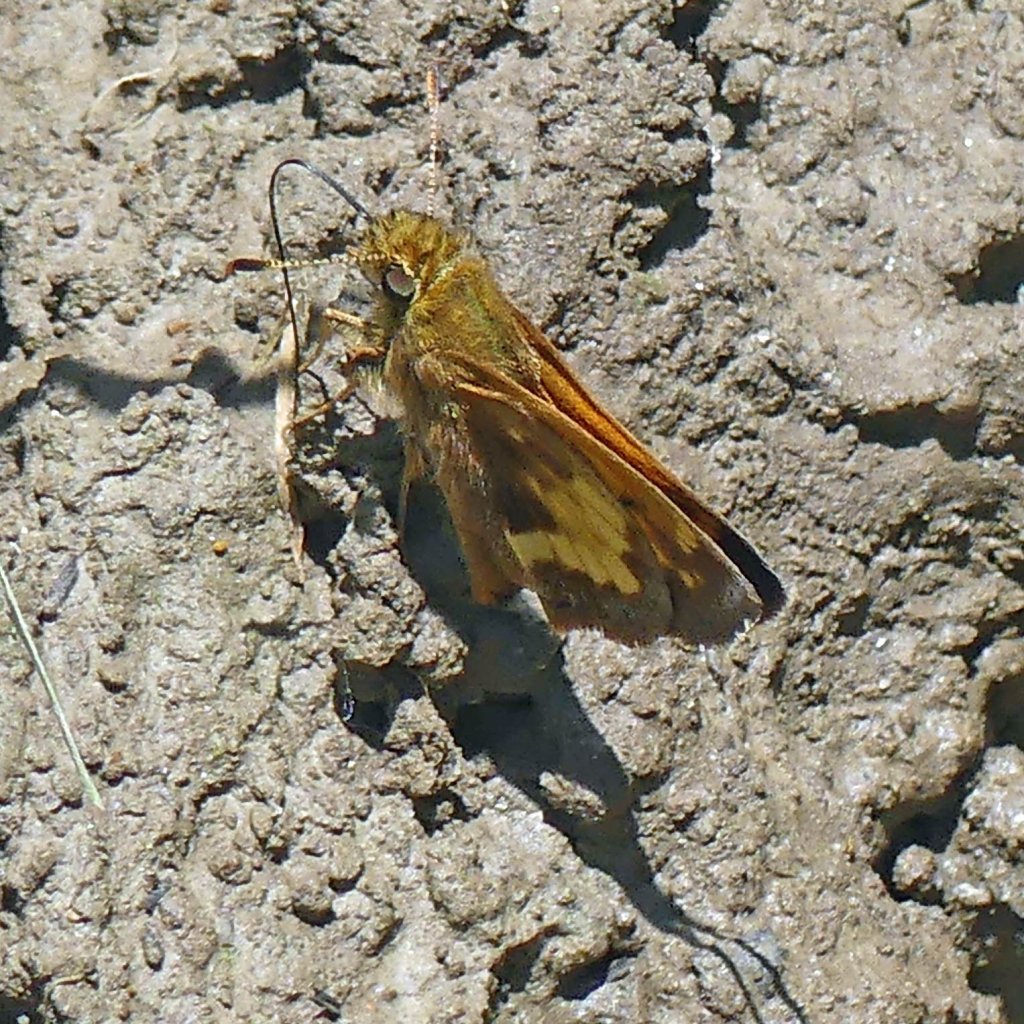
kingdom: Animalia
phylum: Arthropoda
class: Insecta
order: Lepidoptera
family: Hesperiidae
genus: Lon
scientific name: Lon hobomok
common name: Hobomok Skipper
